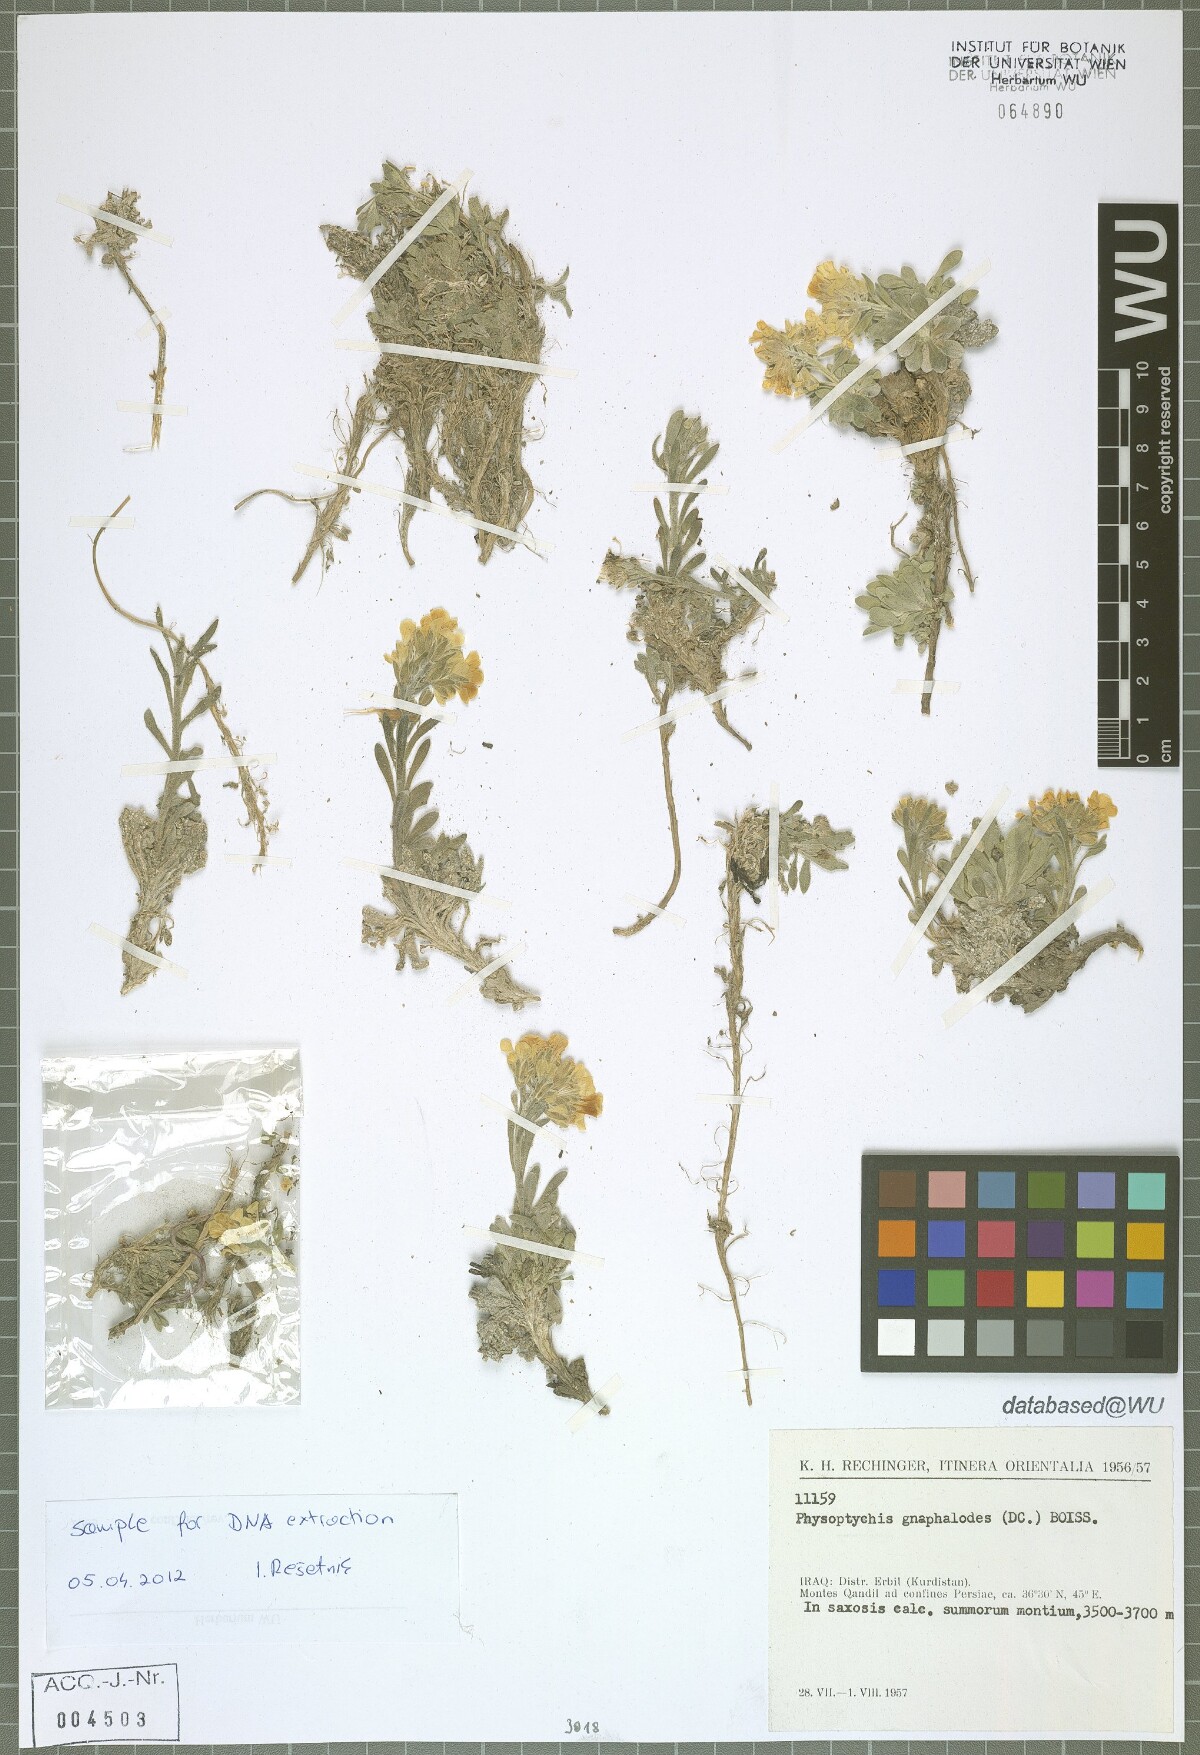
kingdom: Plantae
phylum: Tracheophyta
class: Magnoliopsida
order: Brassicales
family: Brassicaceae
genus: Physoptychis
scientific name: Physoptychis caspica
